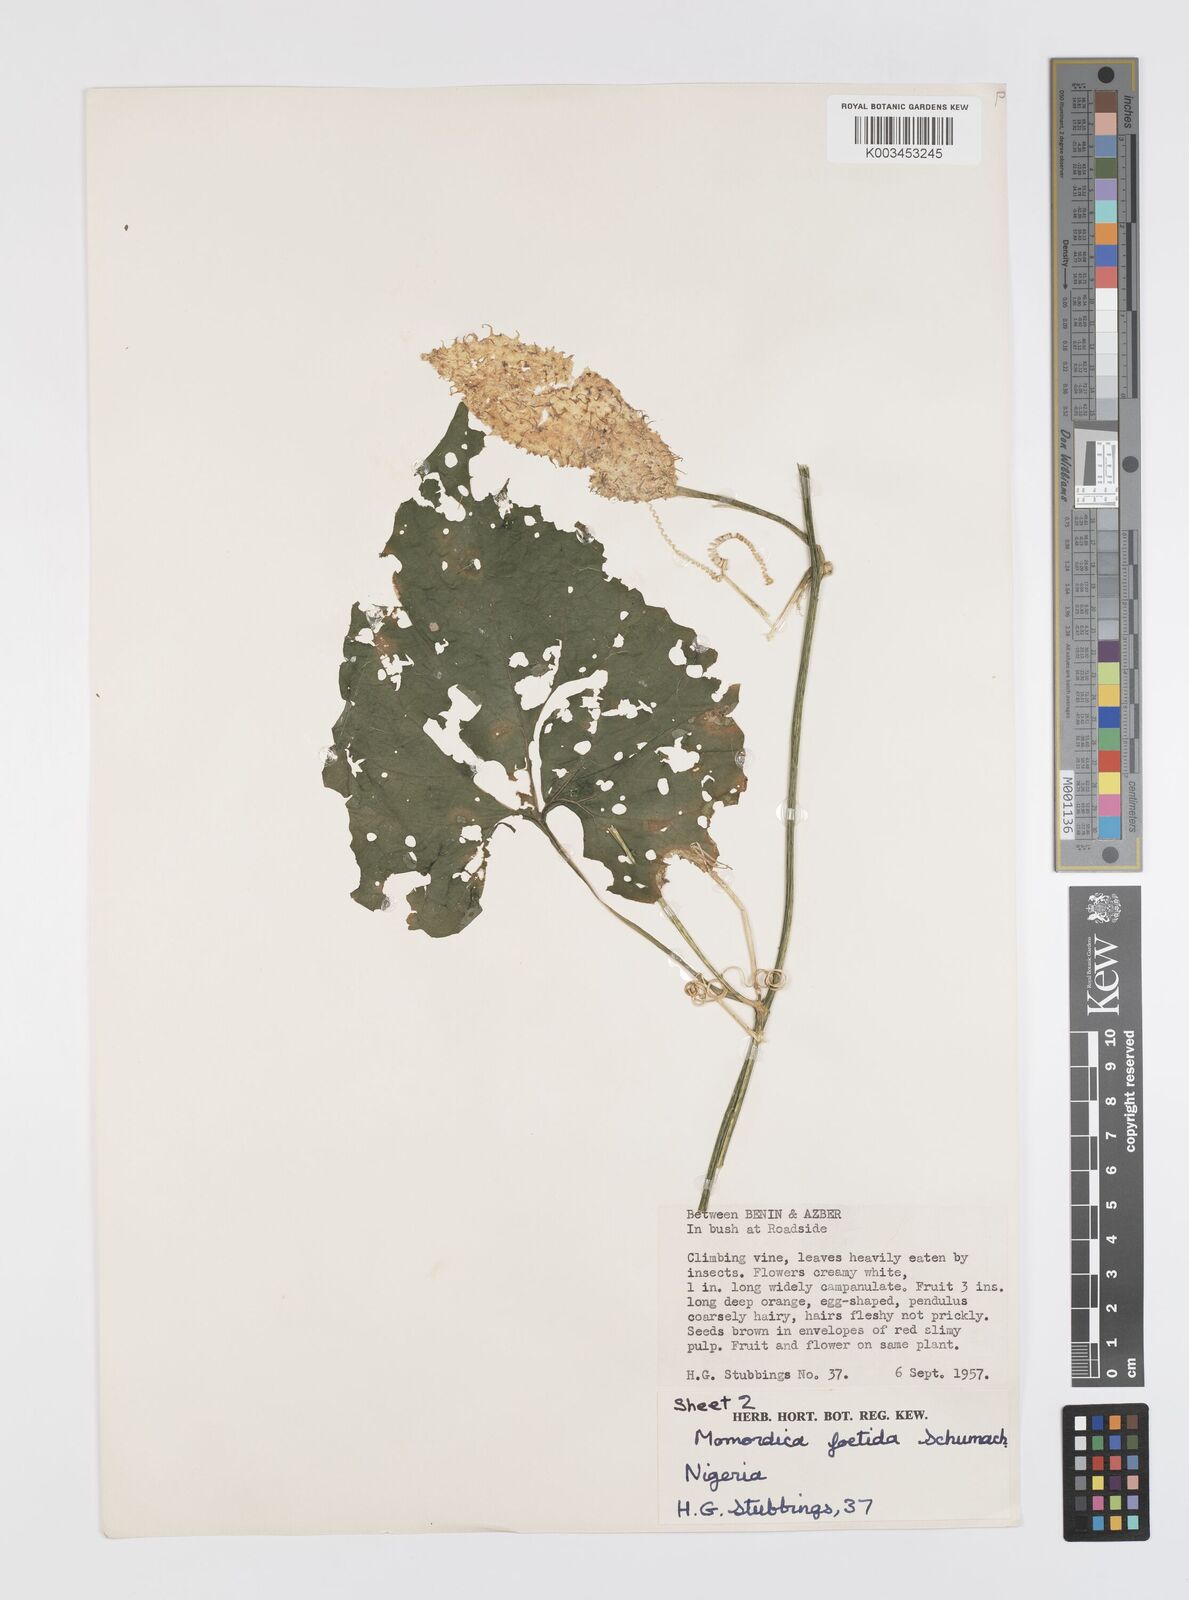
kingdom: Plantae
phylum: Tracheophyta
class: Magnoliopsida
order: Cucurbitales
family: Cucurbitaceae
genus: Momordica
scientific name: Momordica foetida
